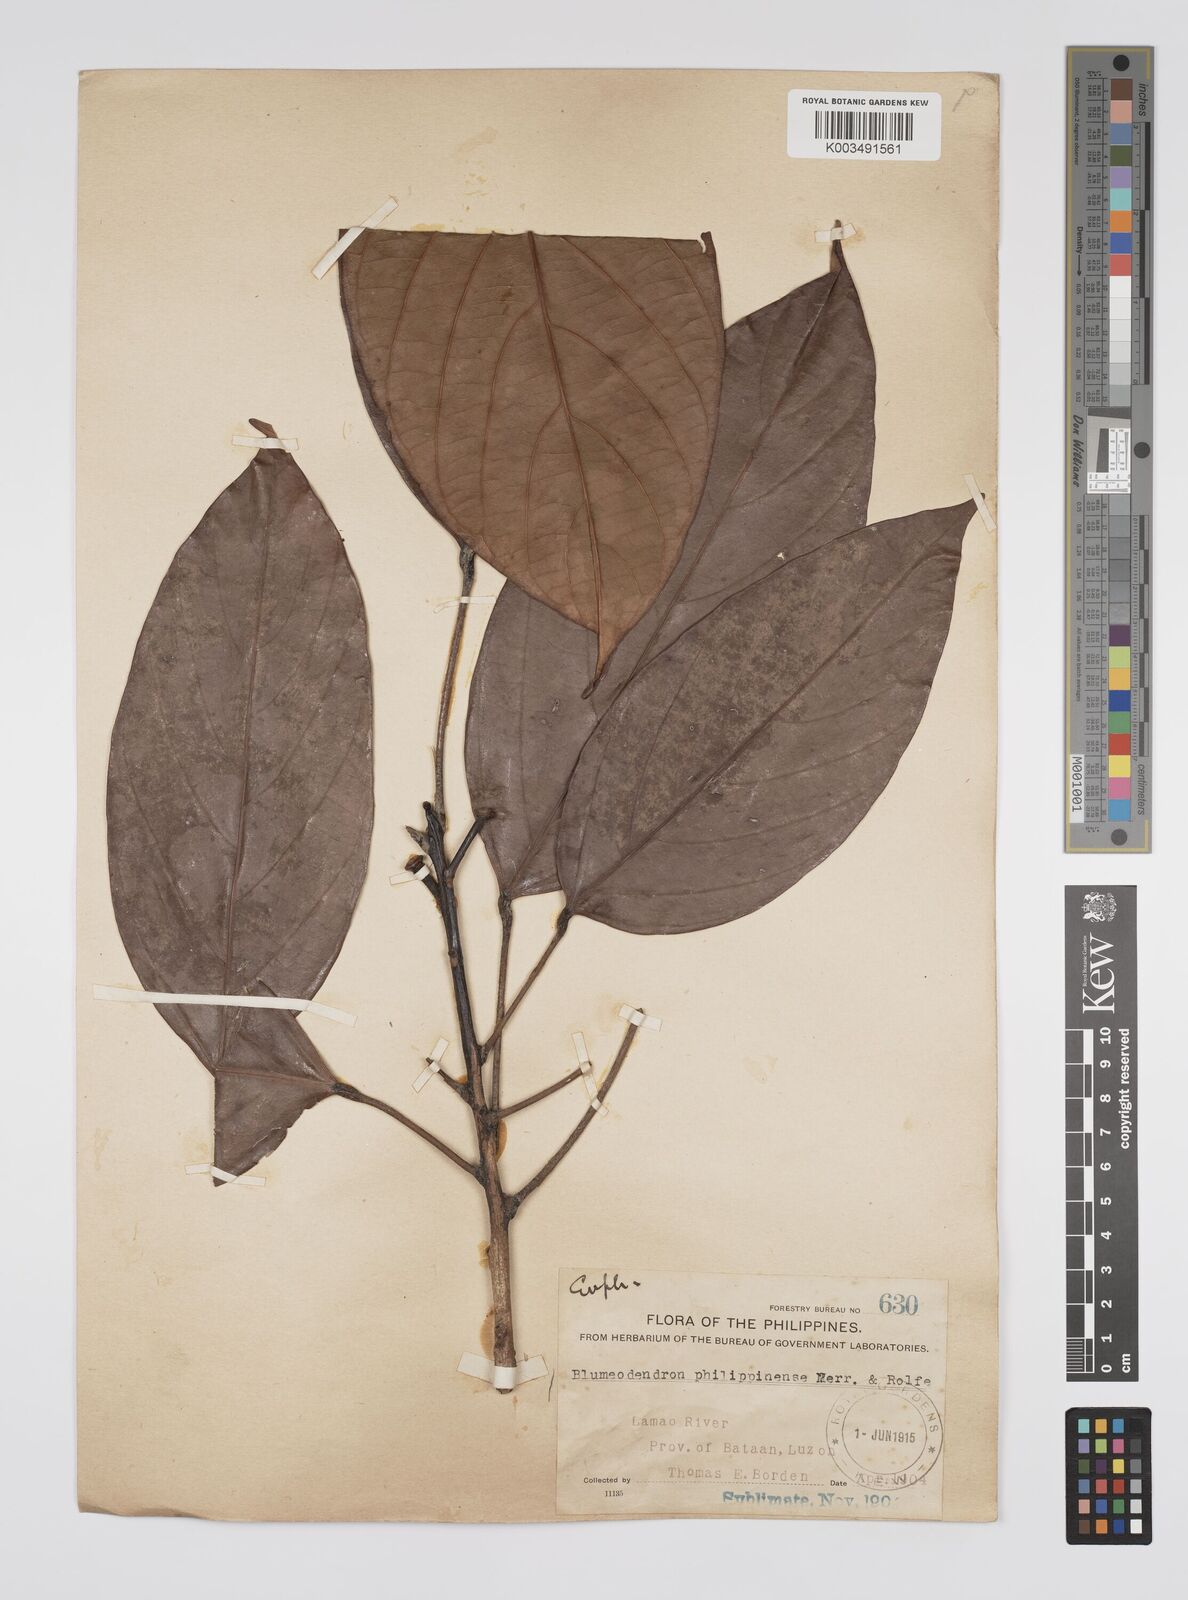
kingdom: Plantae
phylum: Tracheophyta
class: Magnoliopsida
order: Malpighiales
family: Euphorbiaceae
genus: Blumeodendron
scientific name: Blumeodendron philippinense
